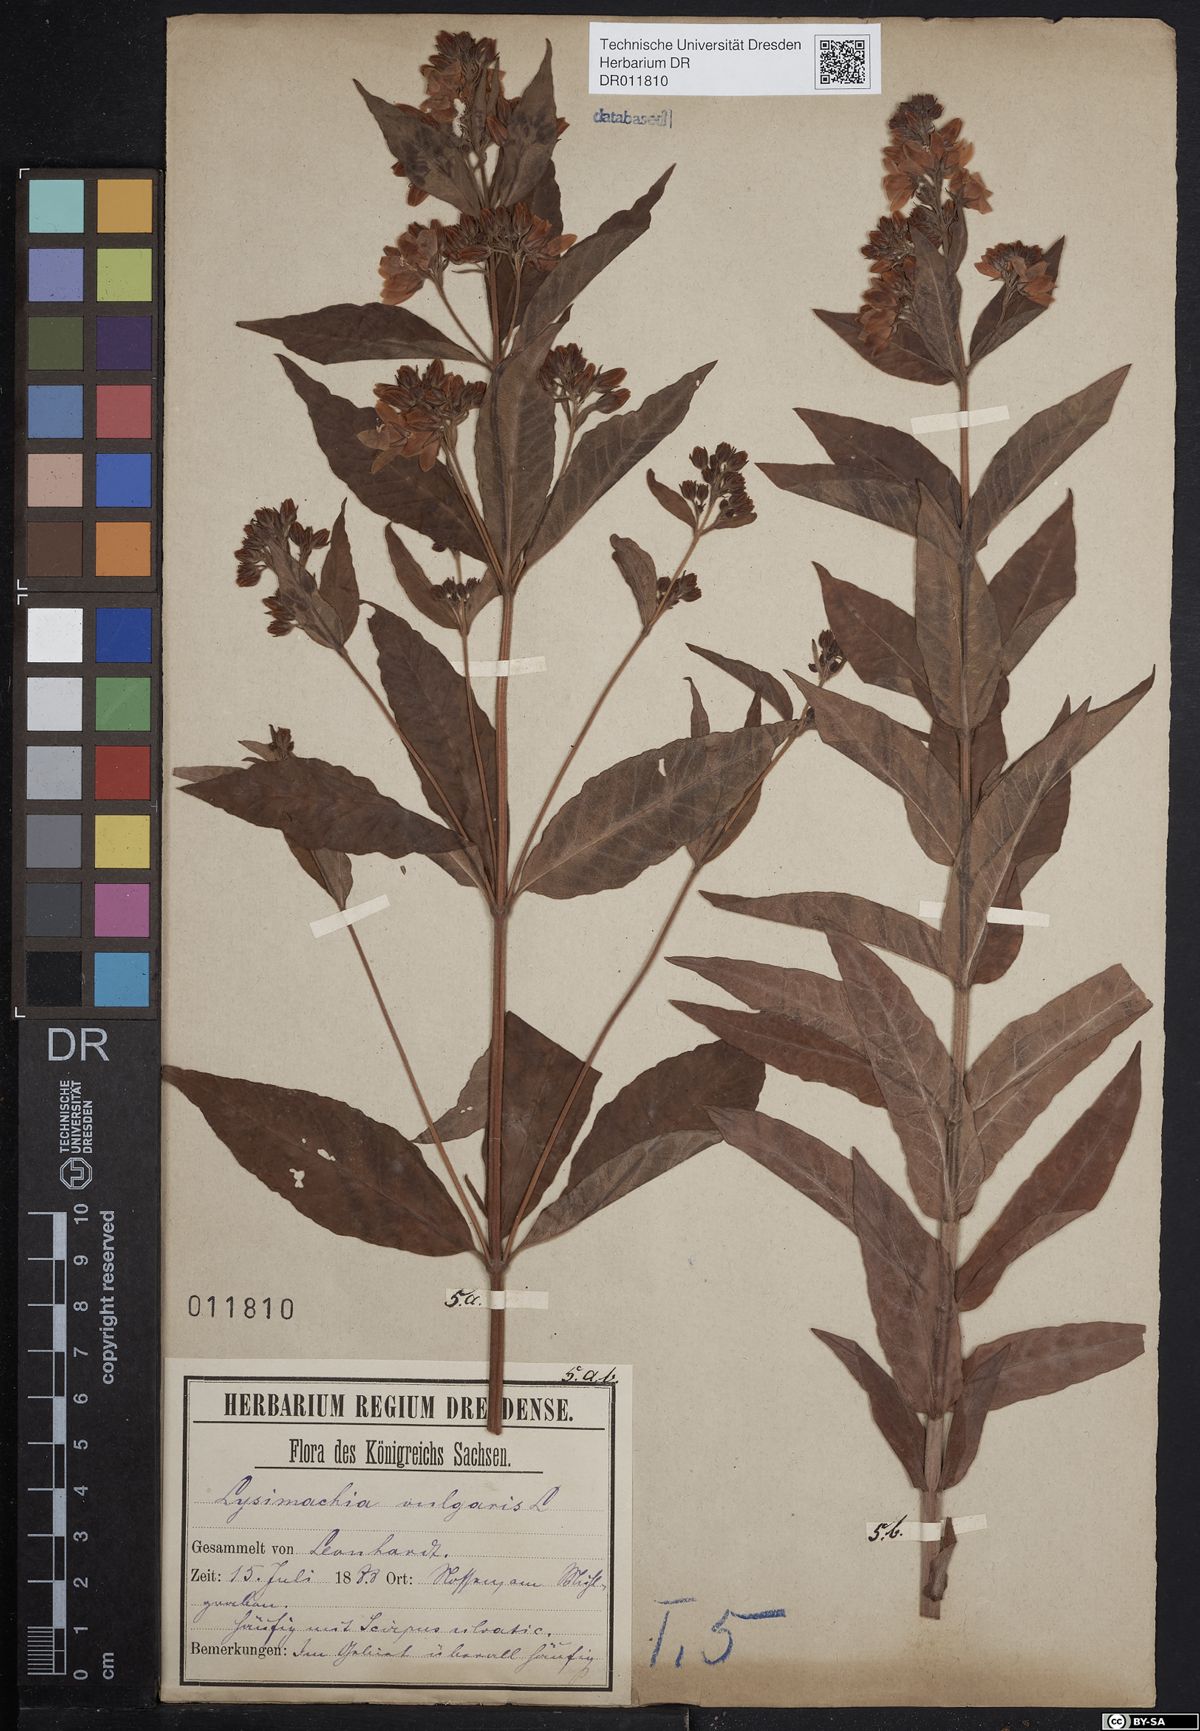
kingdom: Plantae
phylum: Tracheophyta
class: Magnoliopsida
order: Ericales
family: Primulaceae
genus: Lysimachia
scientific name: Lysimachia vulgaris
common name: Yellow loosestrife
